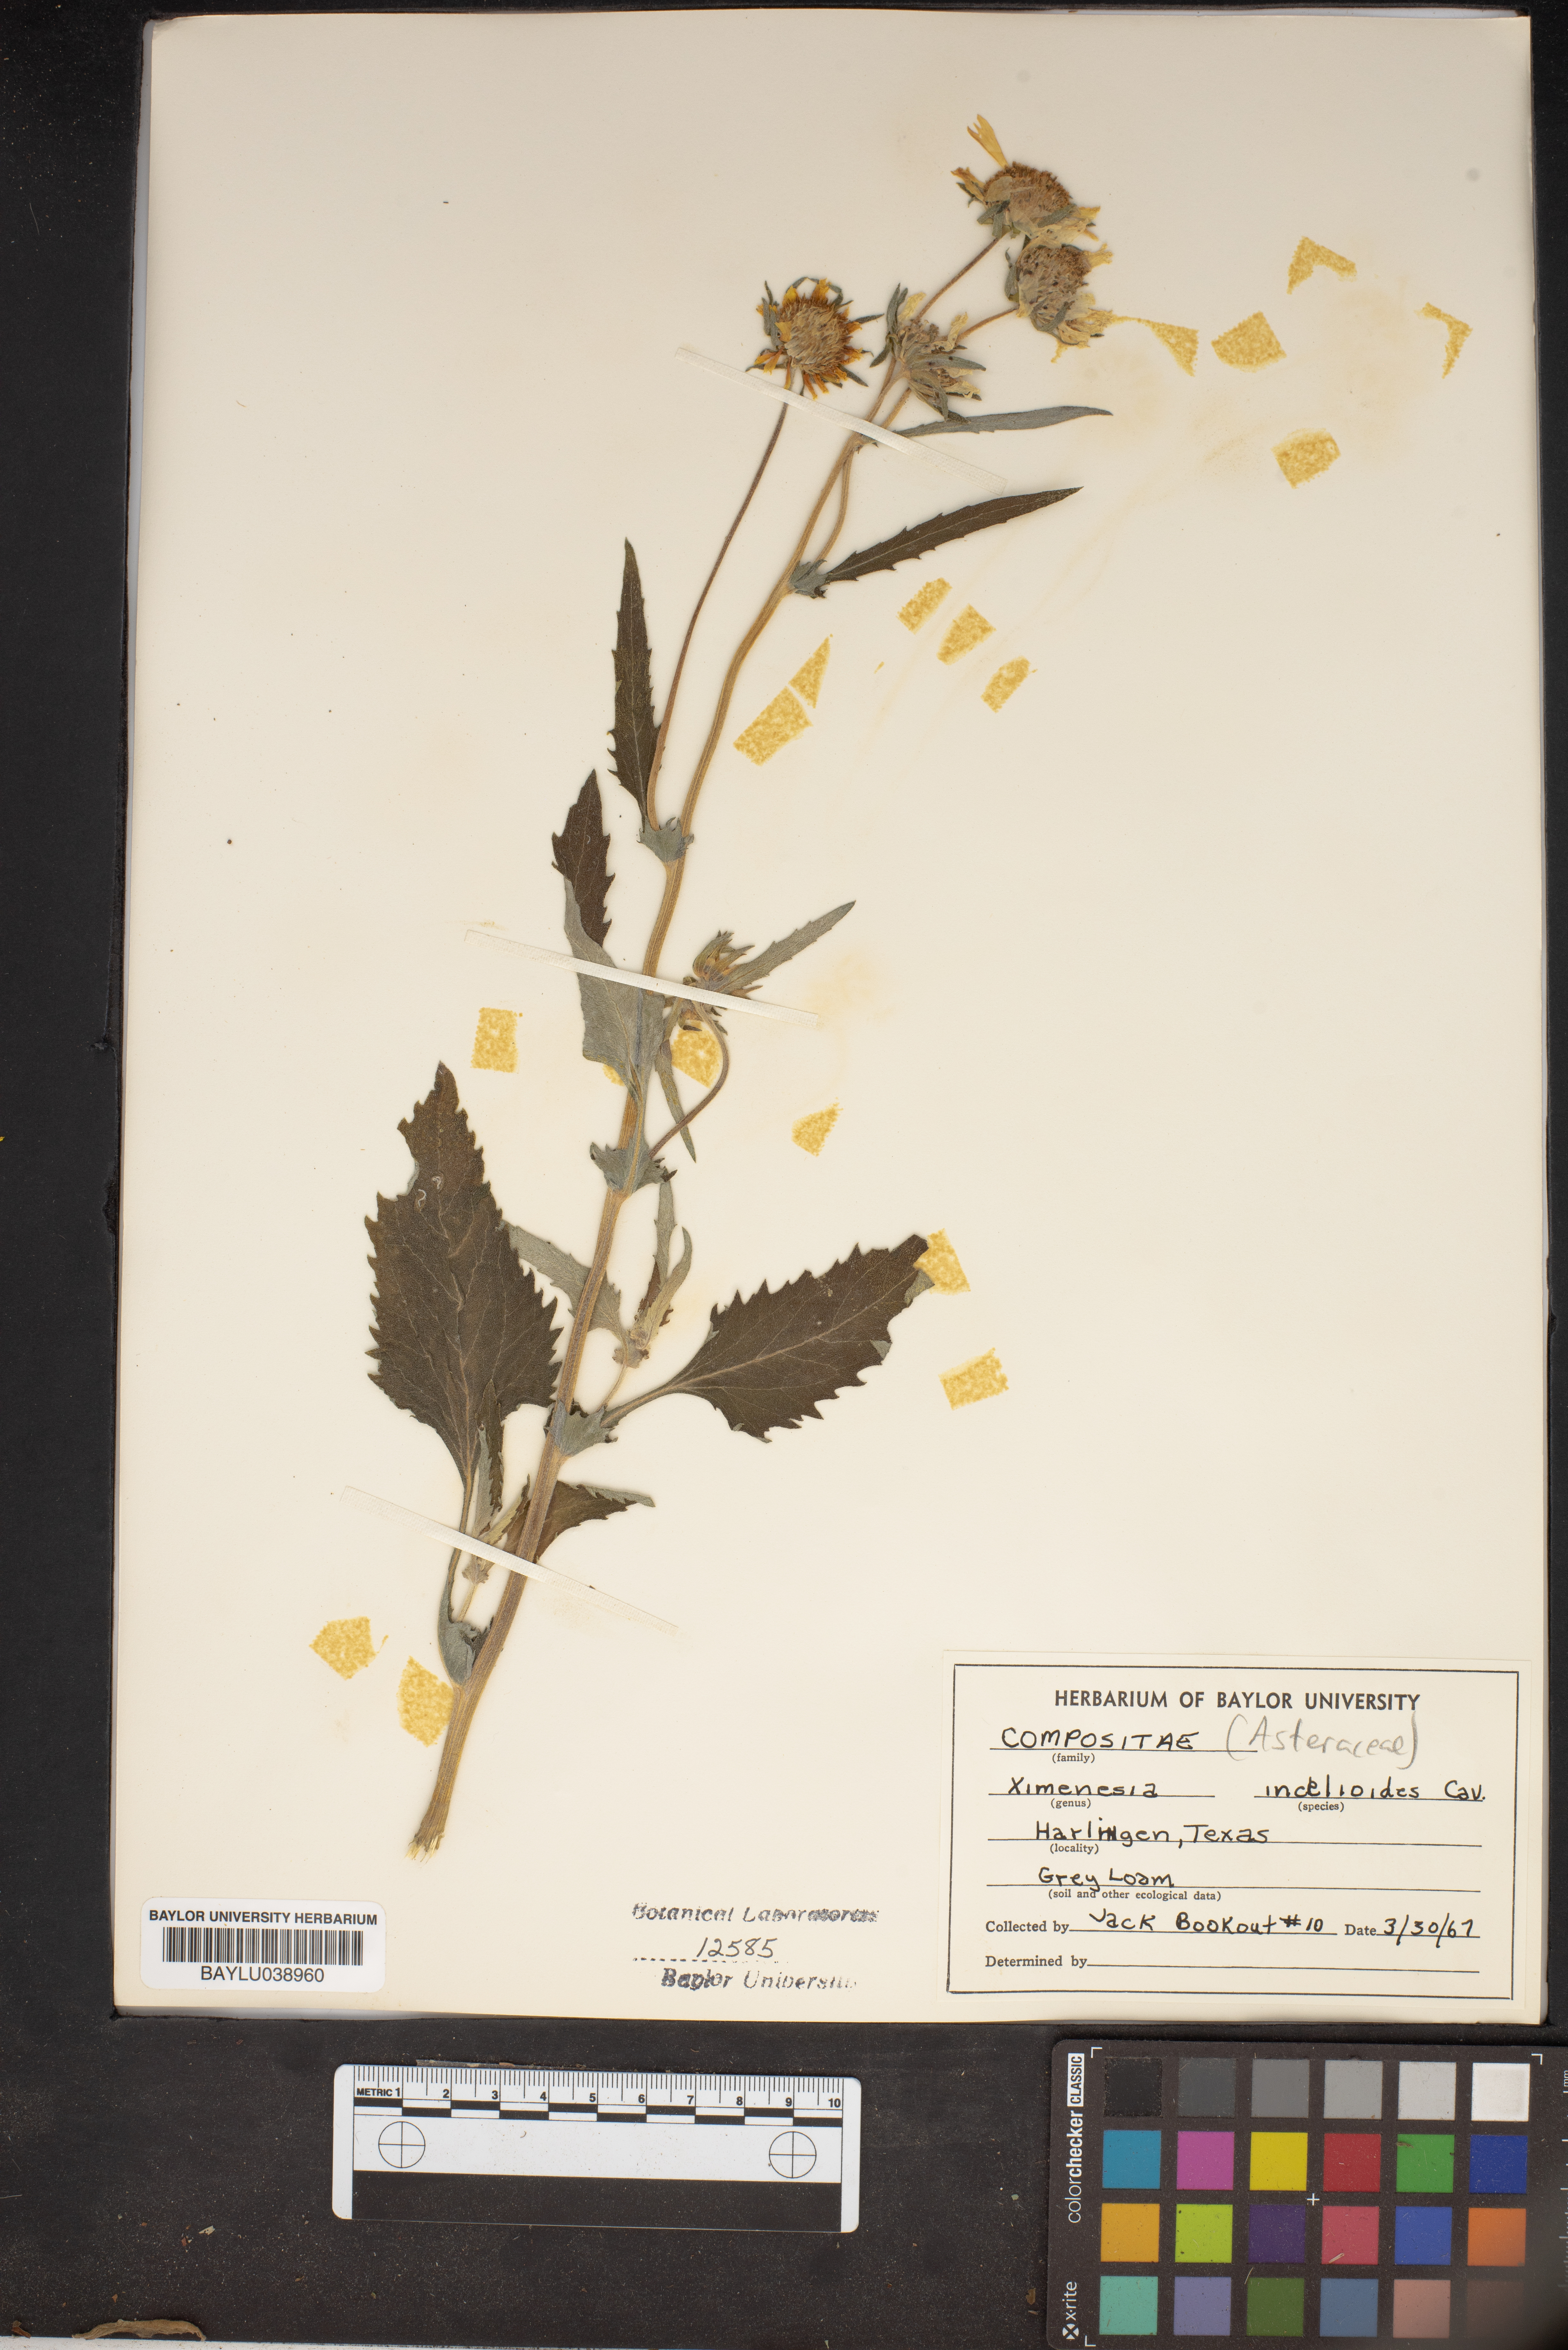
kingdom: Plantae
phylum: Tracheophyta
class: Magnoliopsida
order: Asterales
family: Asteraceae
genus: Verbesina
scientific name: Verbesina encelioides
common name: Golden crownbeard
